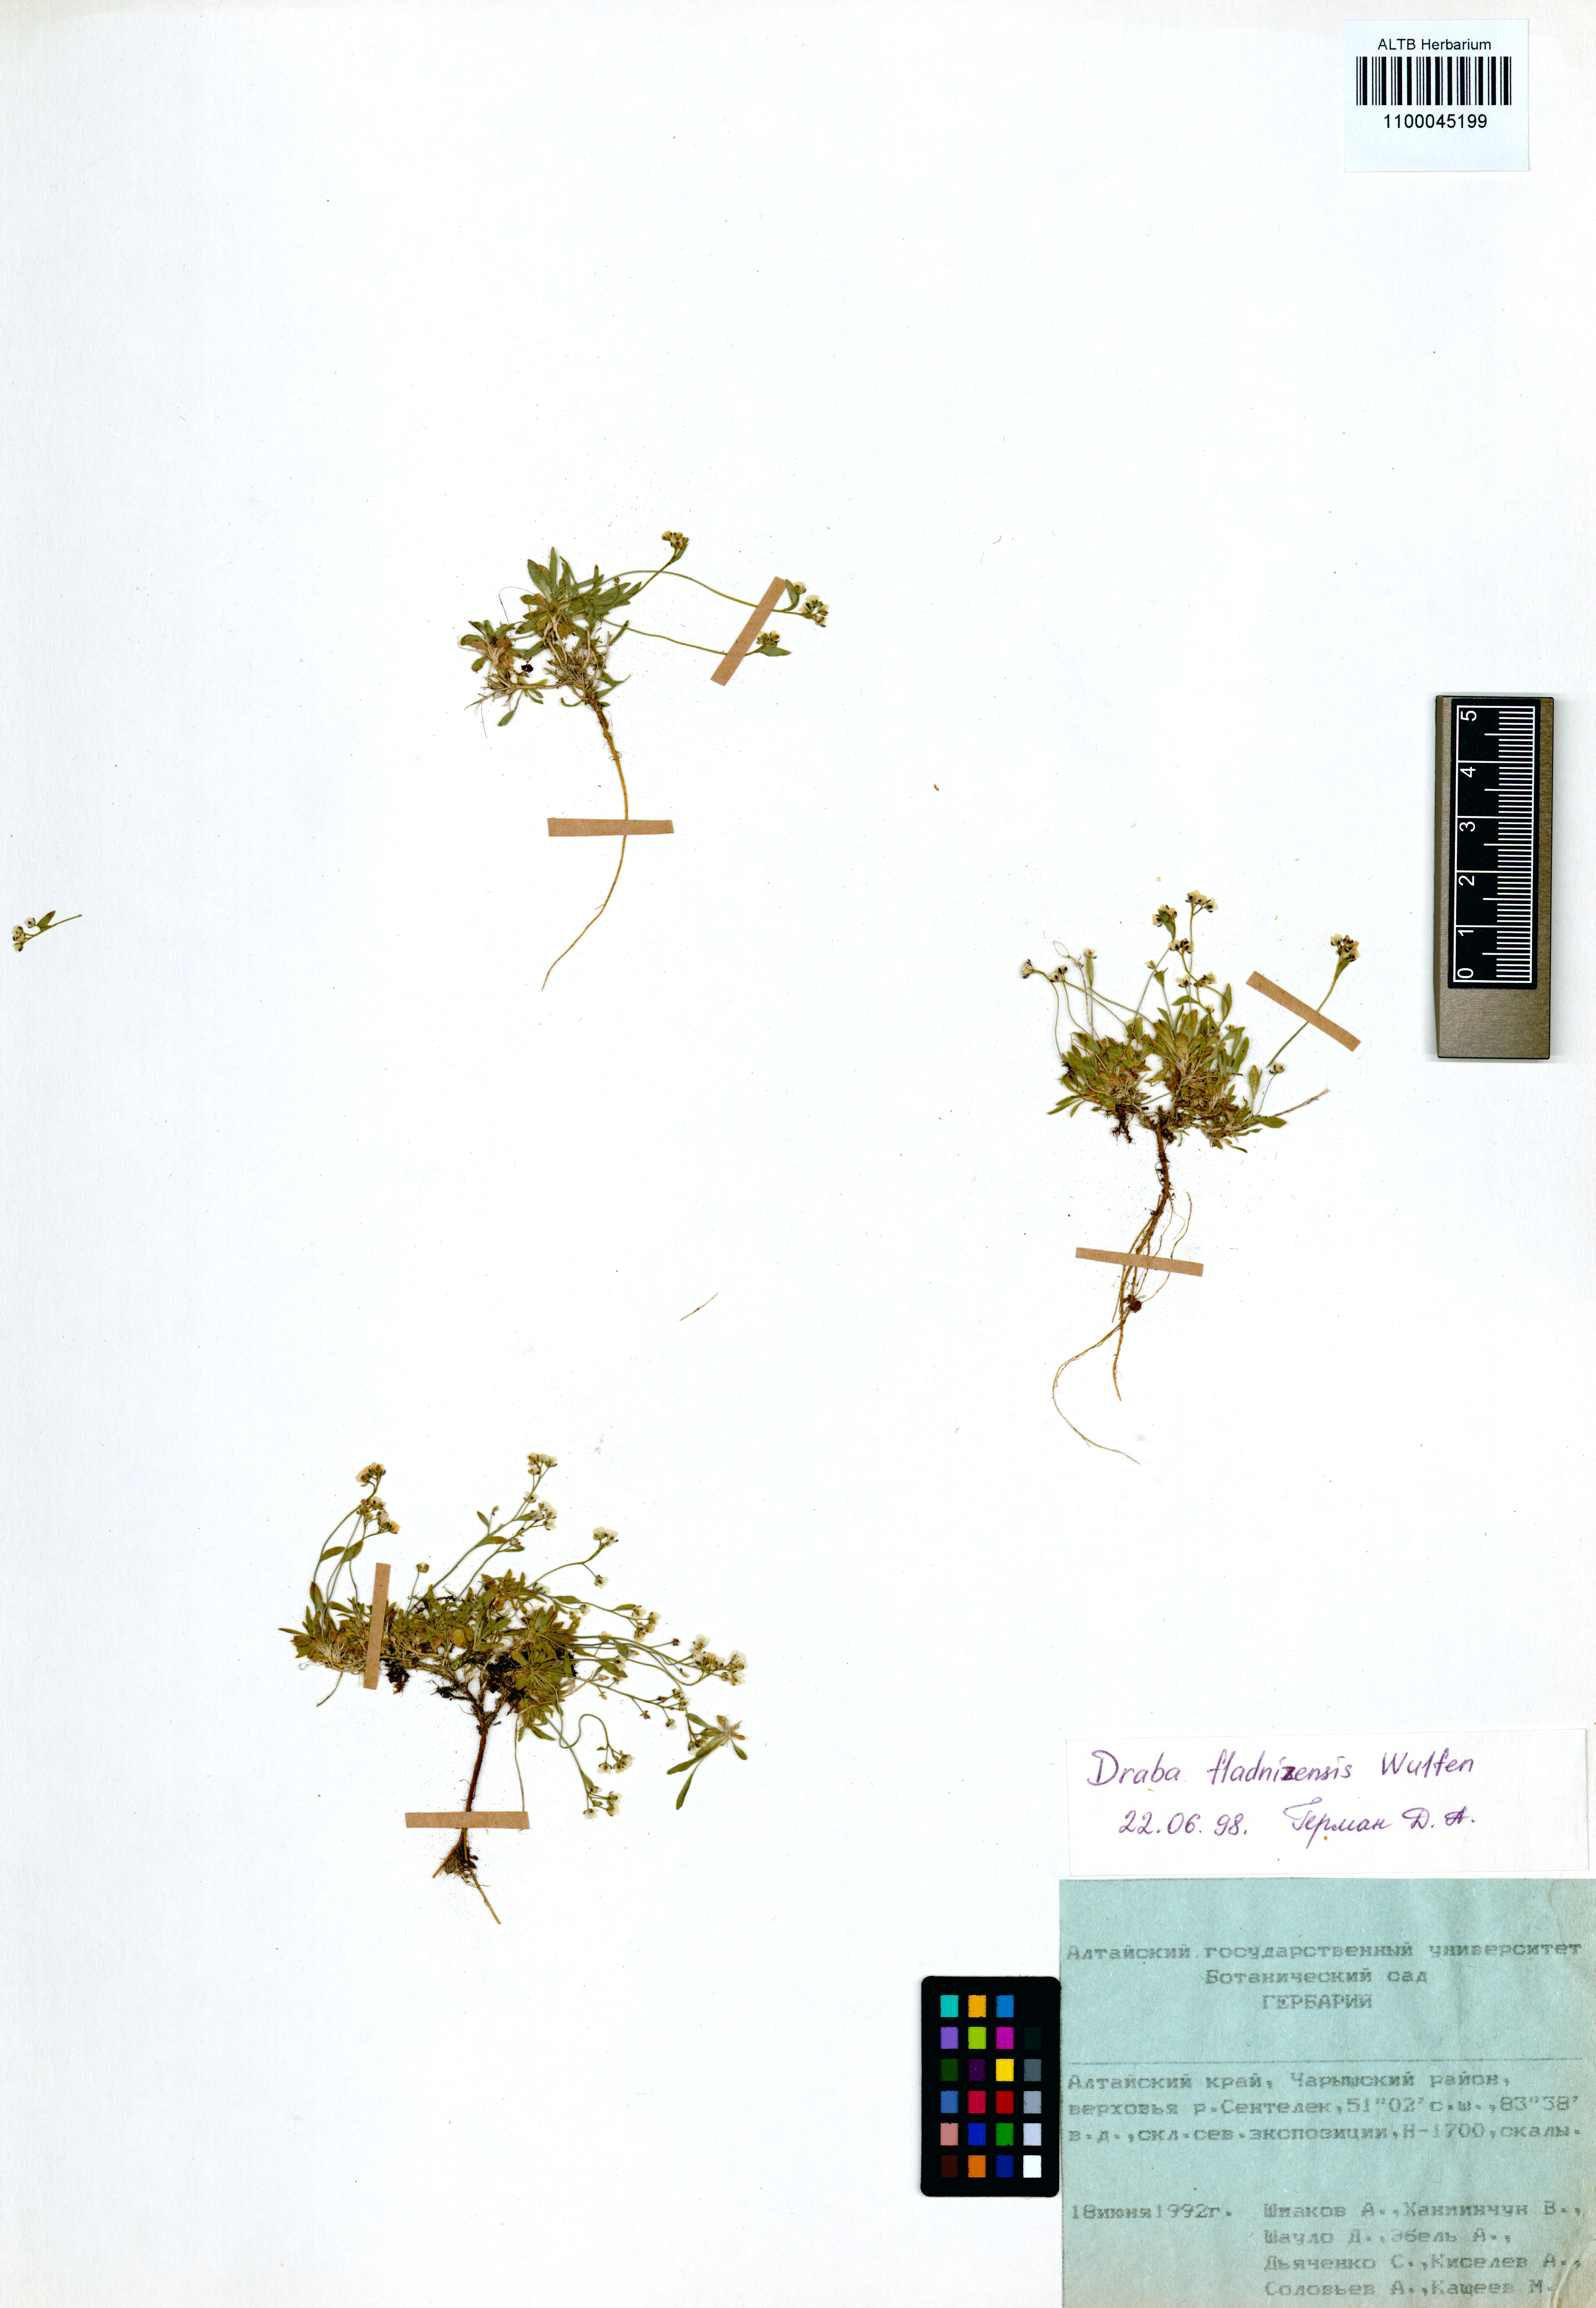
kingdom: Plantae
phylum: Tracheophyta
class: Magnoliopsida
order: Brassicales
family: Brassicaceae
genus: Draba
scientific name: Draba fladnizensis
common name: Austrian draba
